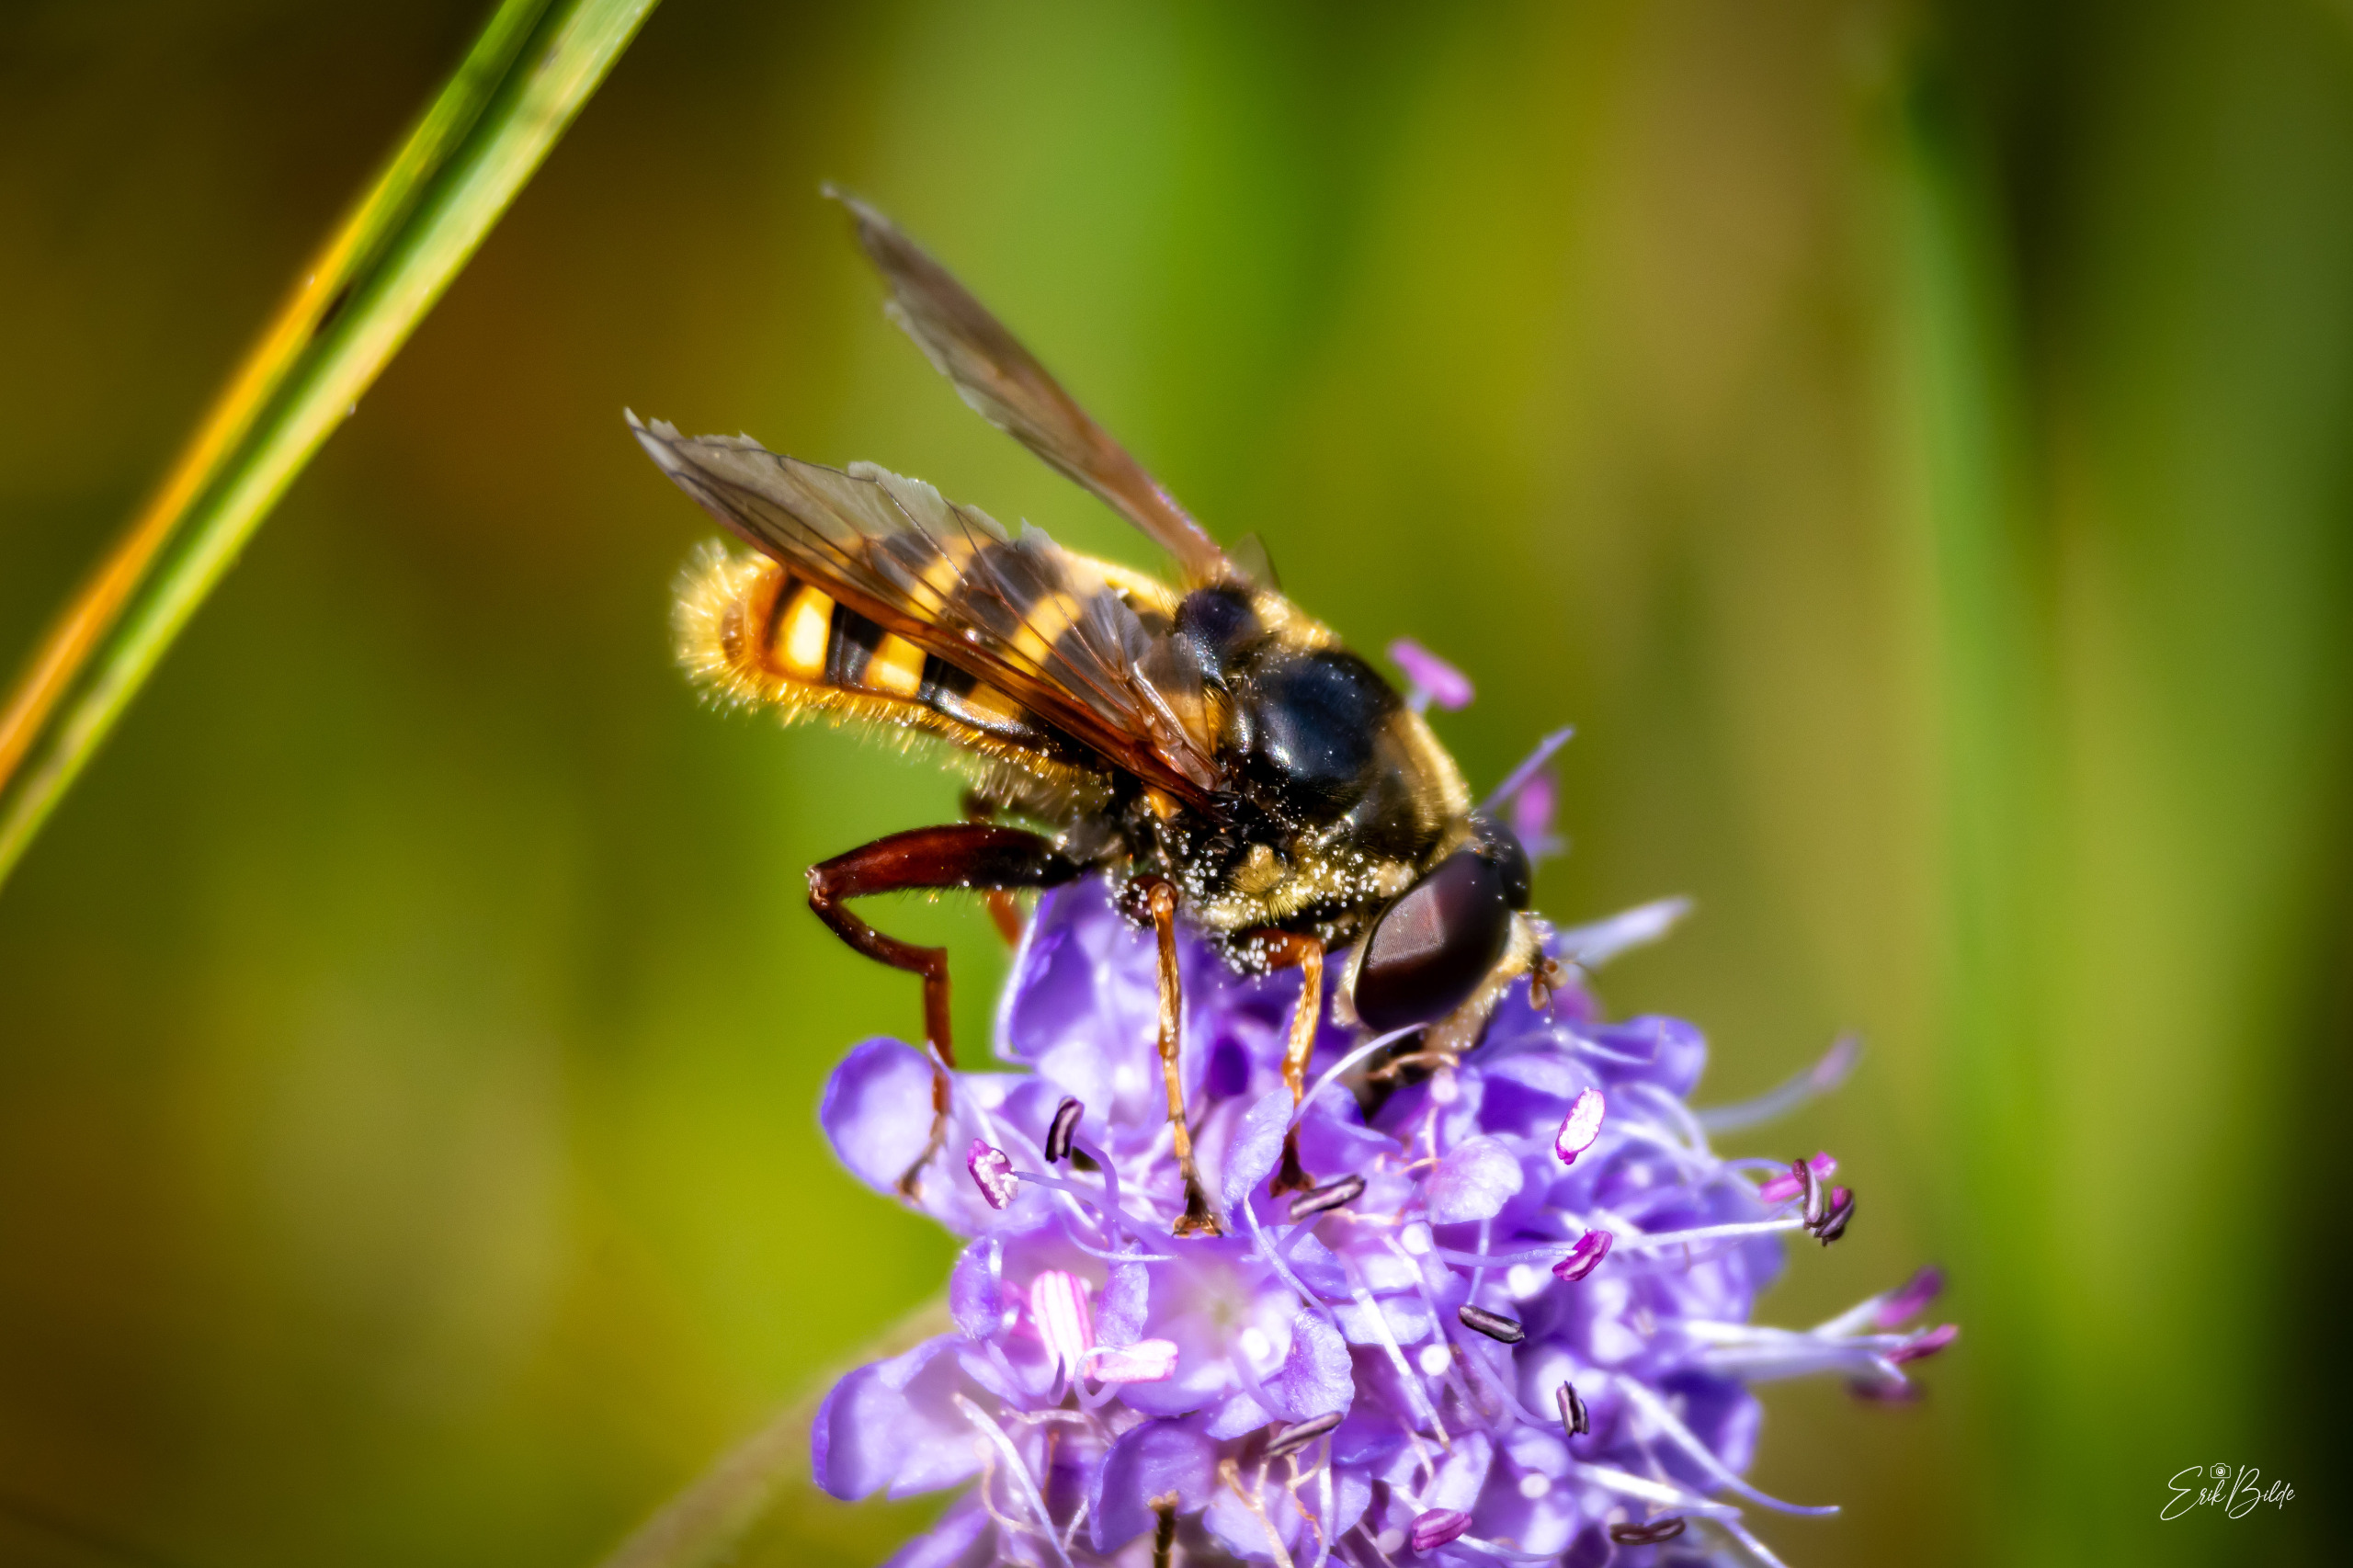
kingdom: Animalia
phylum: Arthropoda
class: Insecta
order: Diptera
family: Syrphidae
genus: Sericomyia
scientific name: Sericomyia silentis
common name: Tørve-silkesvirreflue
